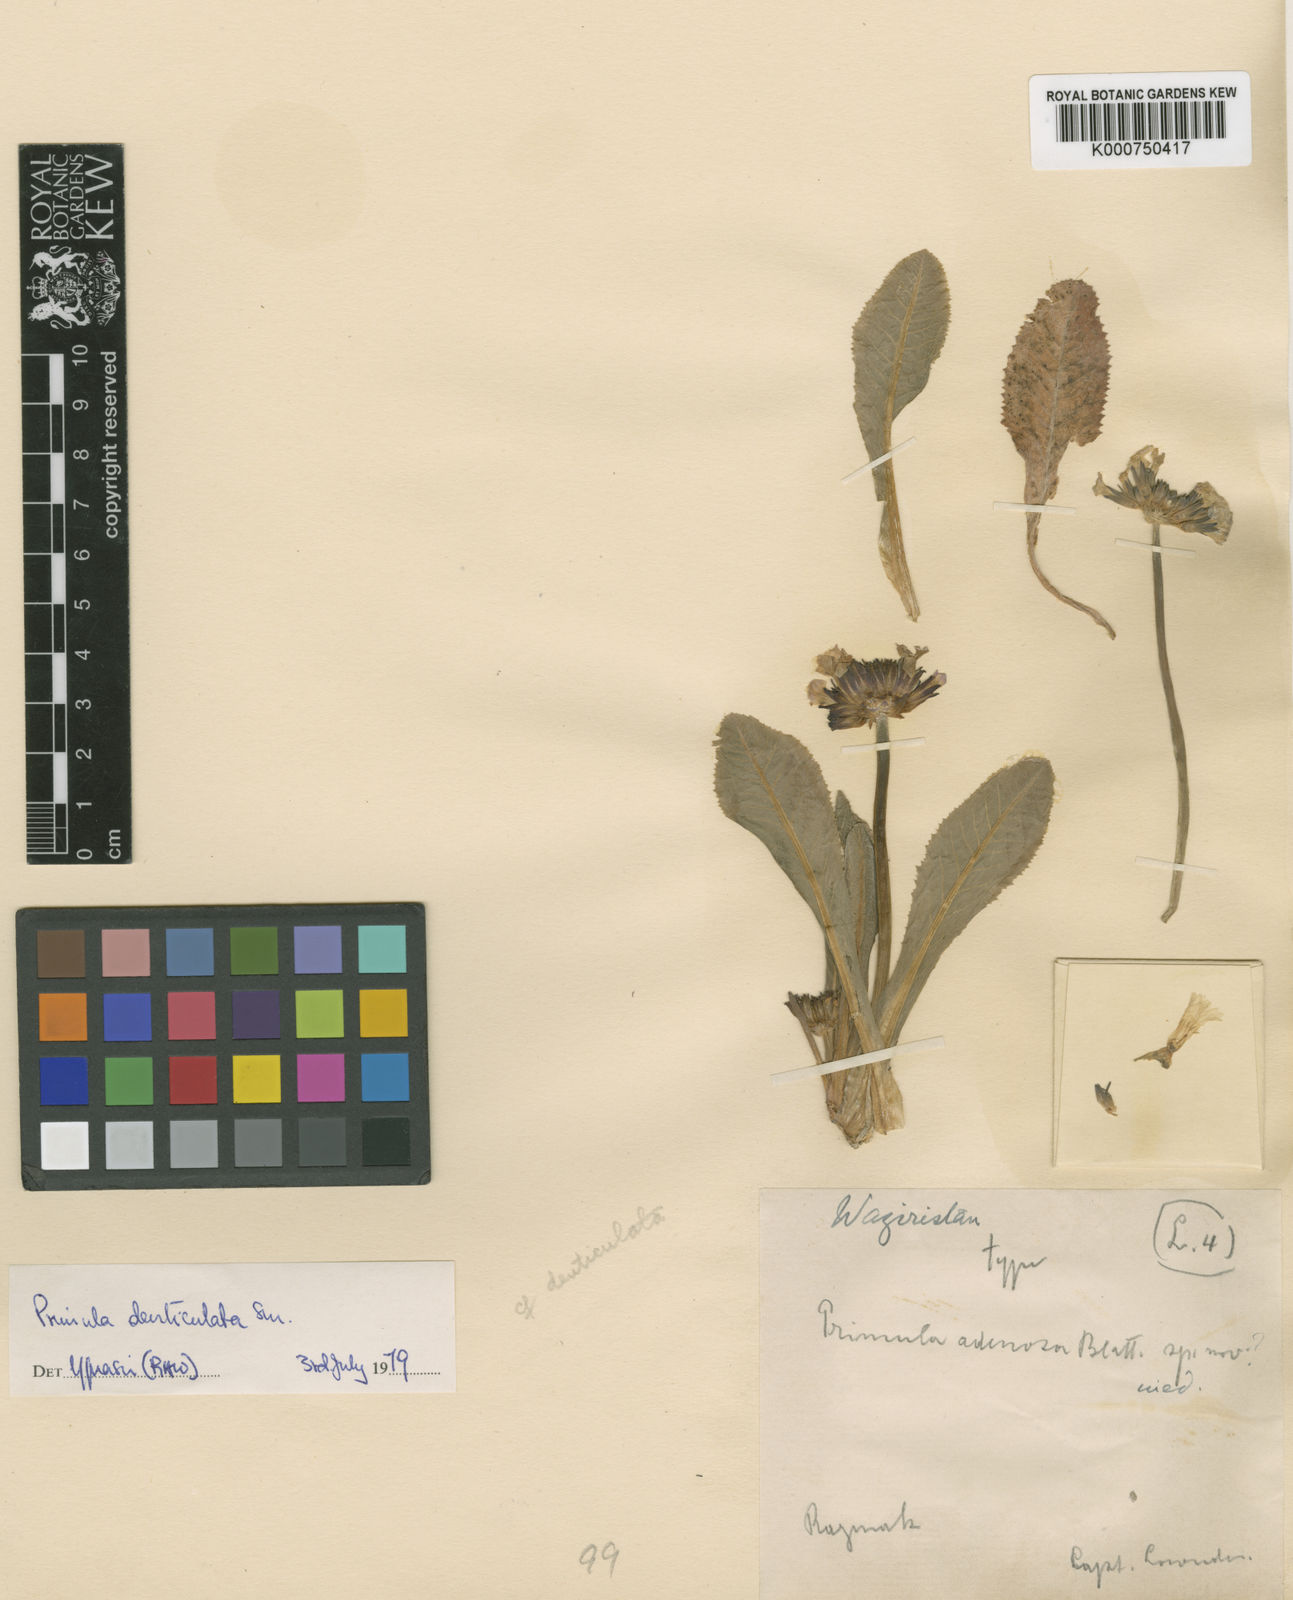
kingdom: Plantae
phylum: Tracheophyta
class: Magnoliopsida
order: Ericales
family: Primulaceae
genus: Primula
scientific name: Primula
